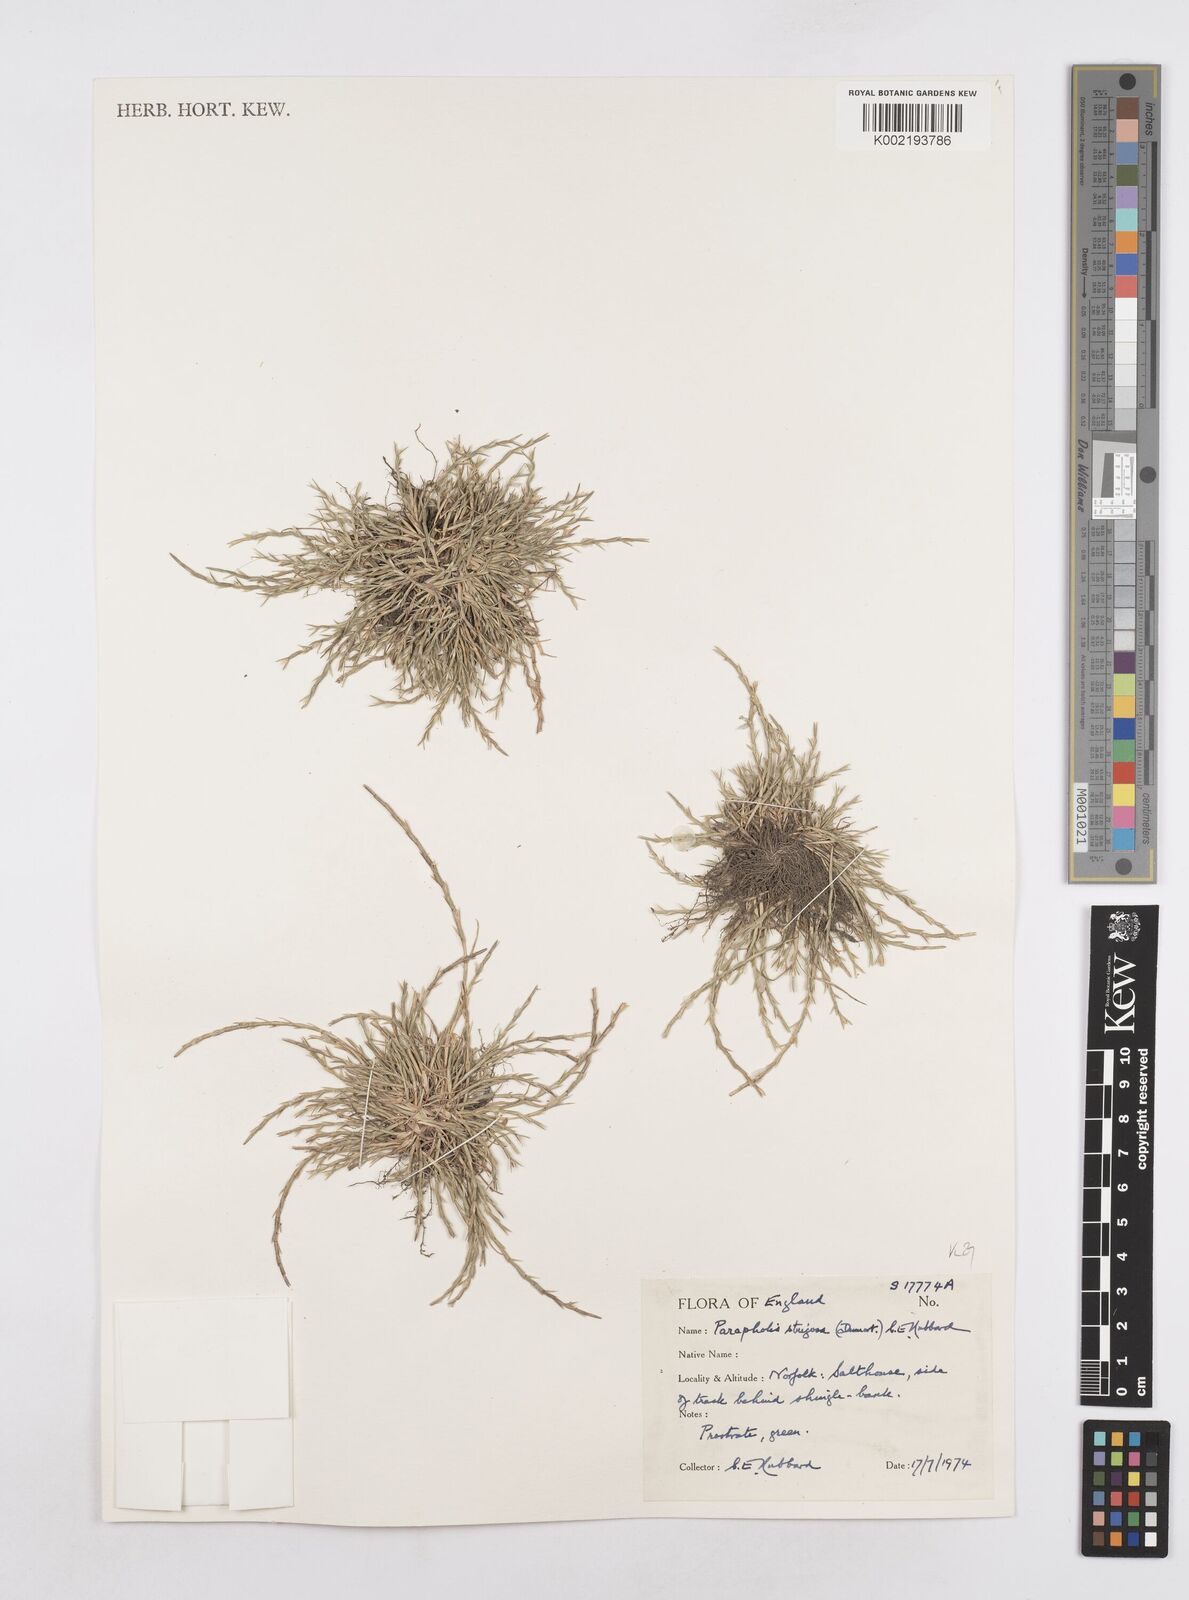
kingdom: Plantae
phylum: Tracheophyta
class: Liliopsida
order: Poales
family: Poaceae
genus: Parapholis
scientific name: Parapholis strigosa
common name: Hard-grass
